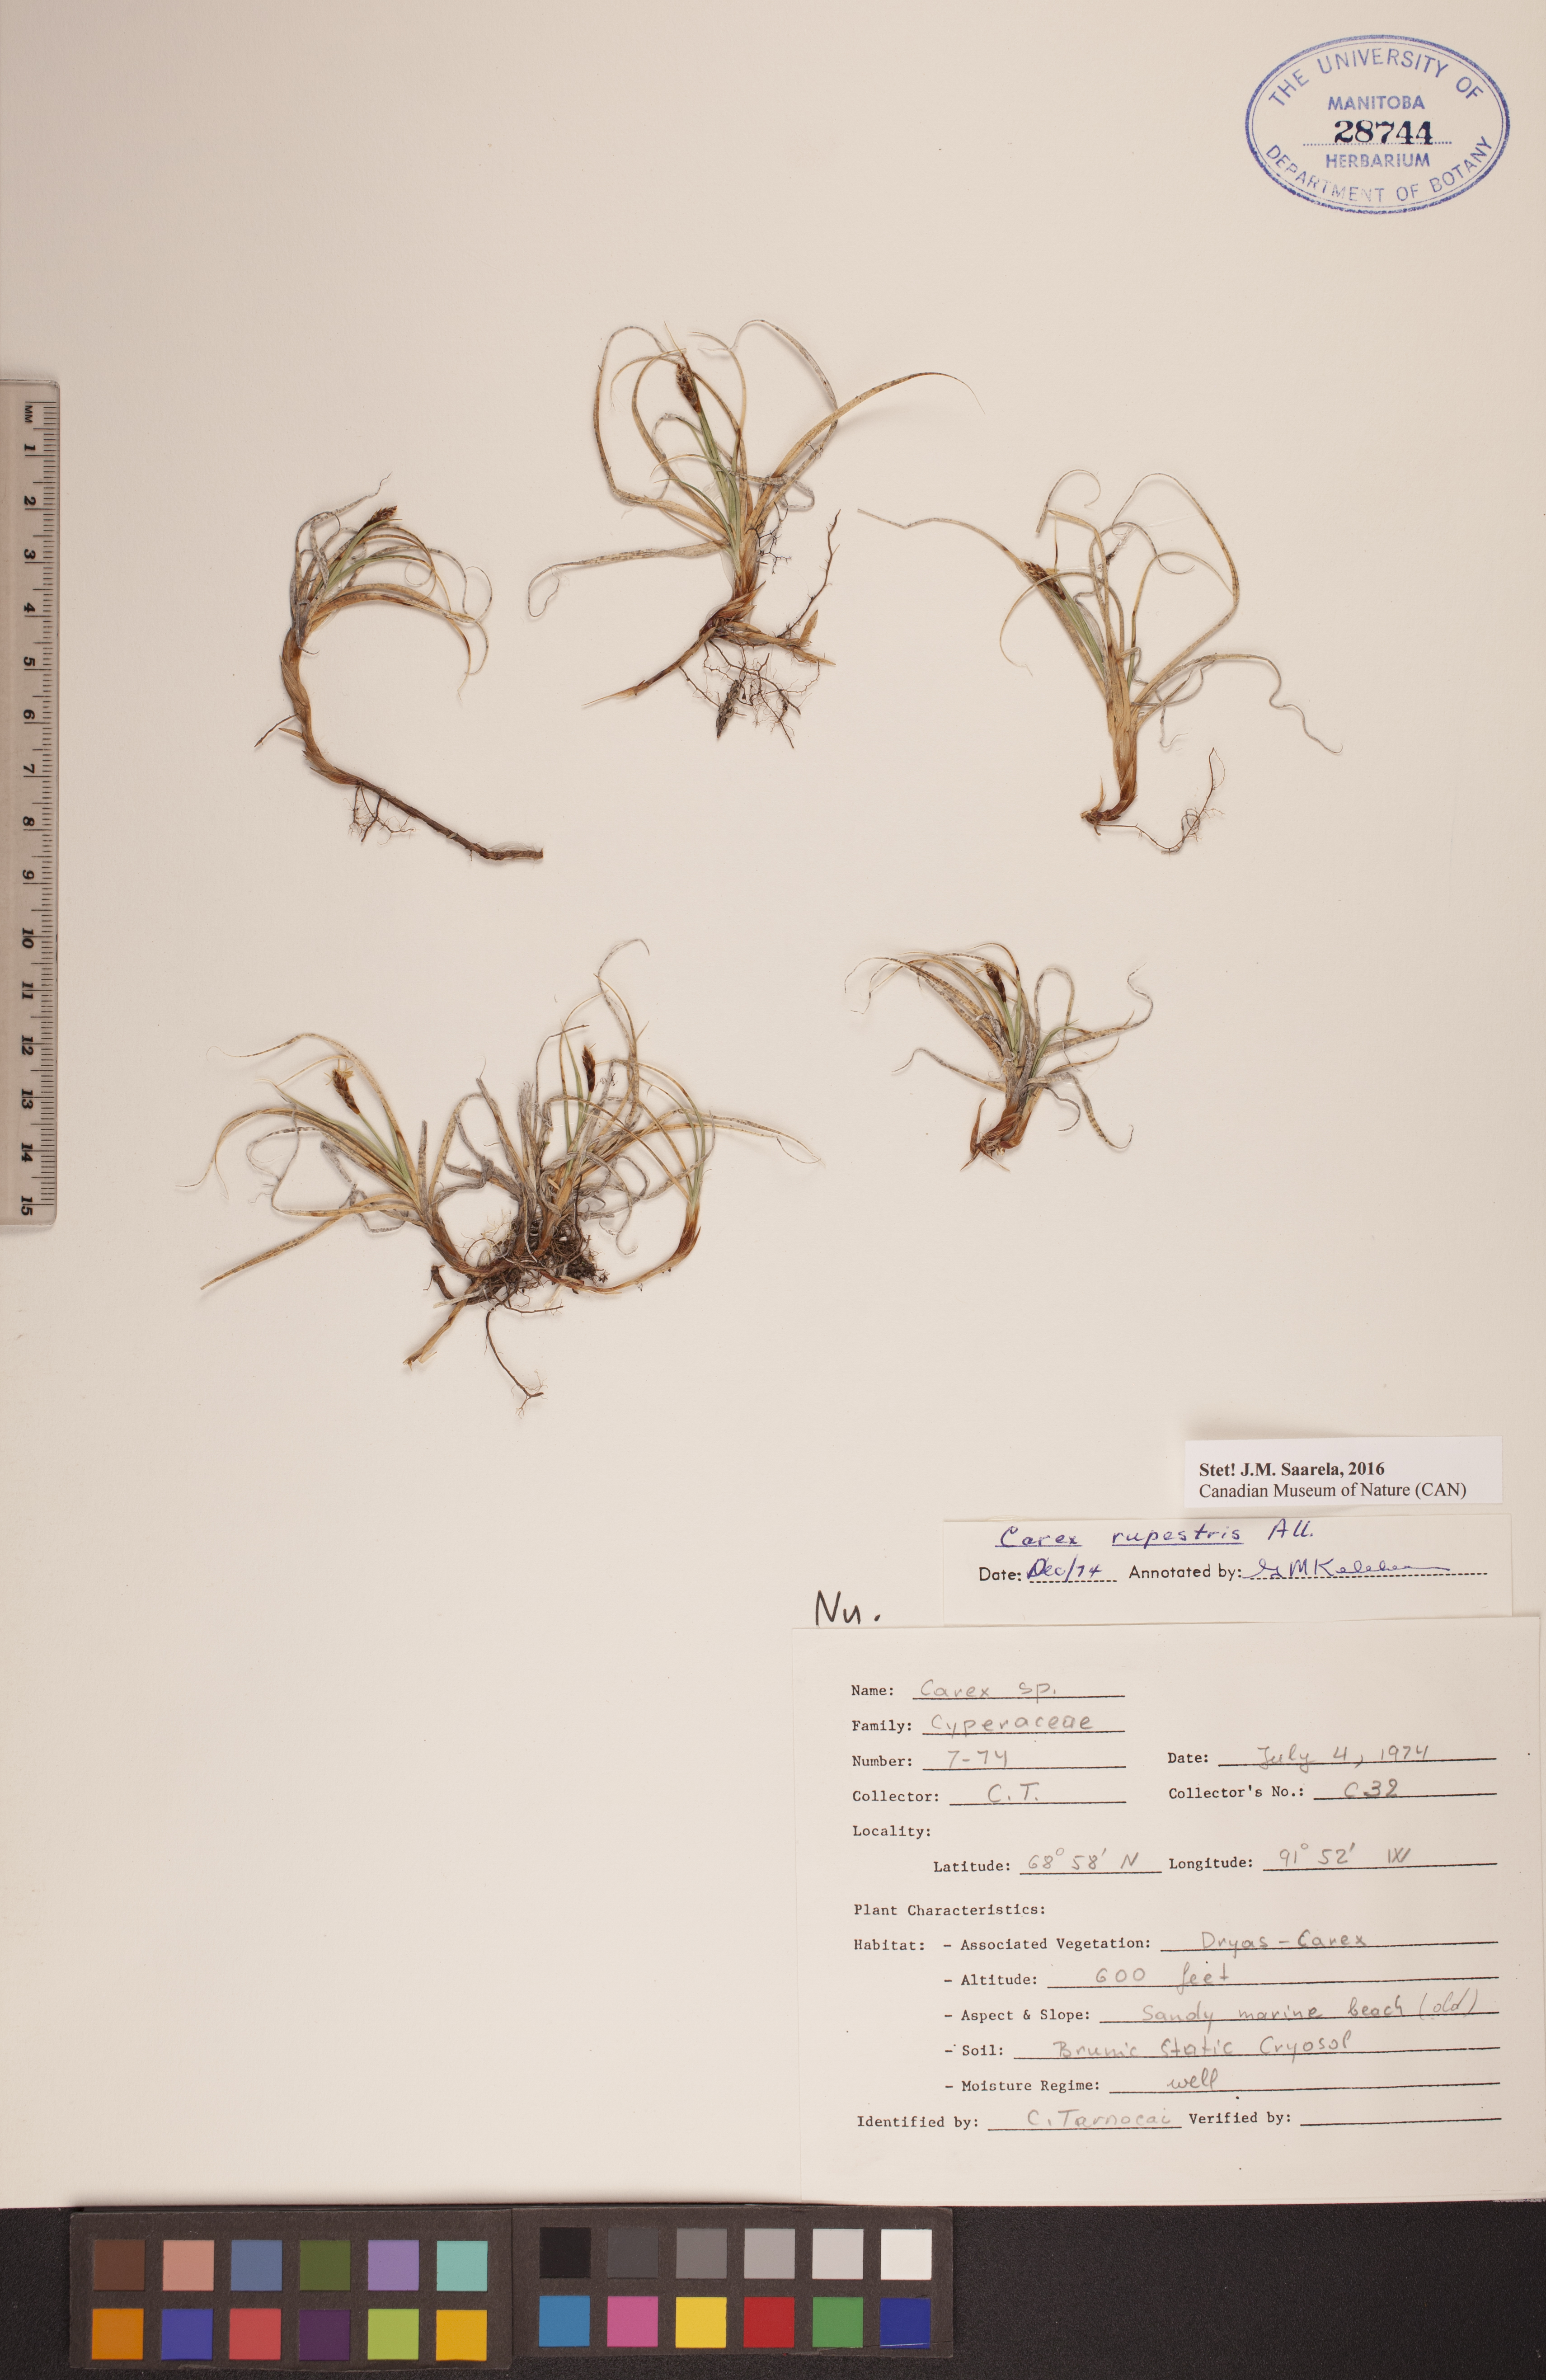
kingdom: Plantae
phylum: Tracheophyta
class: Liliopsida
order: Poales
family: Cyperaceae
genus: Carex
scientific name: Carex rupestris
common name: Rock sedge
